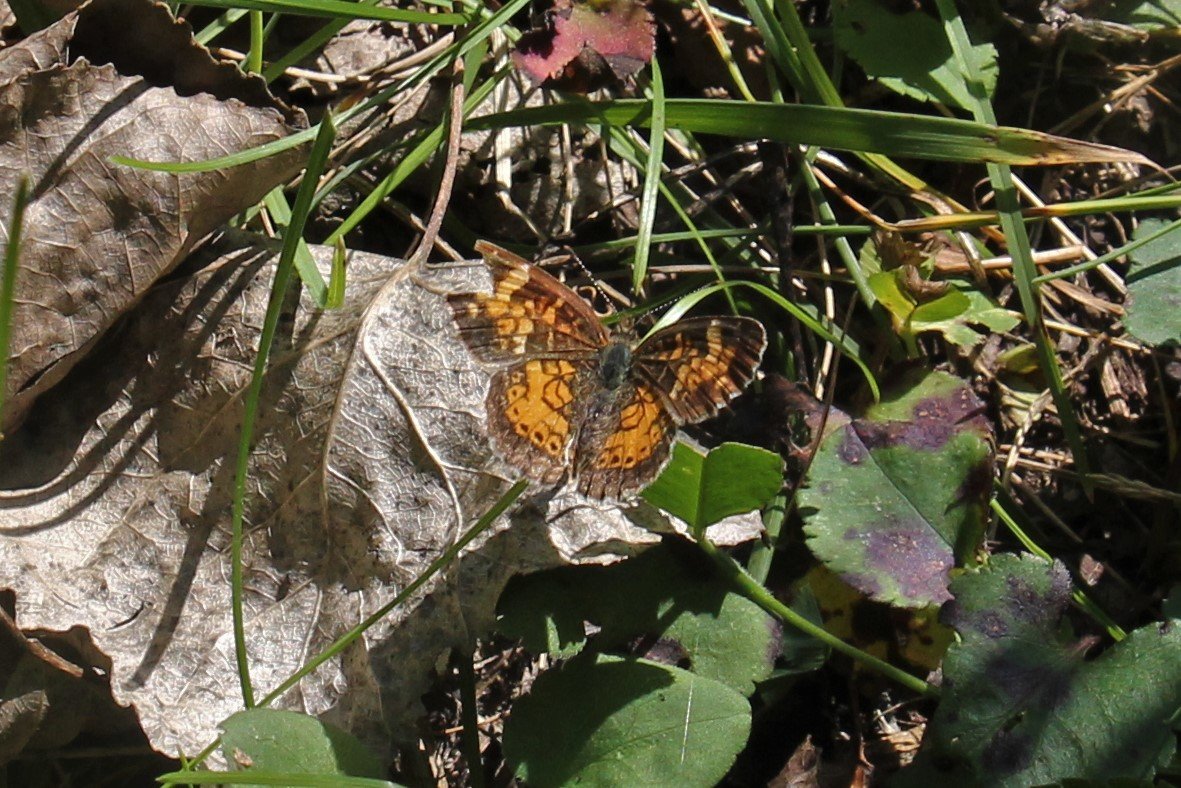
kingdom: Animalia
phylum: Arthropoda
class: Insecta
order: Lepidoptera
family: Nymphalidae
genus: Phyciodes
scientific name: Phyciodes tharos
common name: Northern Crescent
